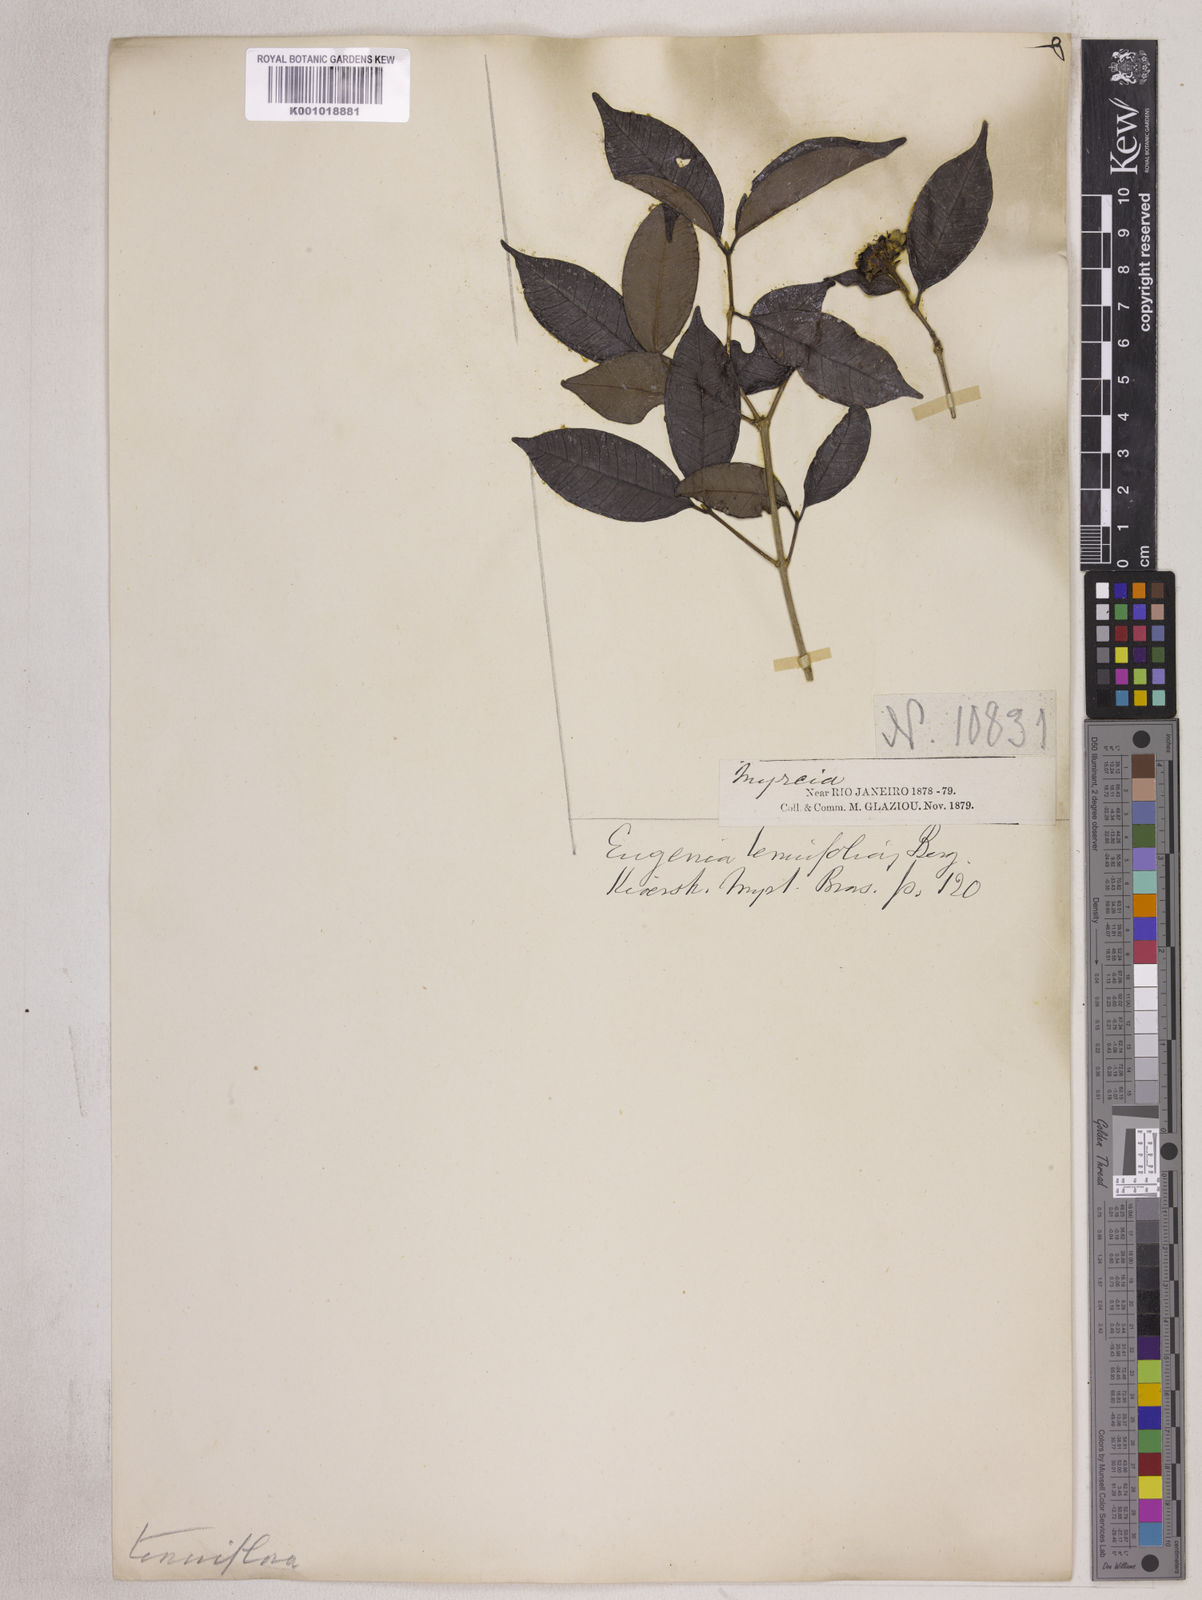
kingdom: Plantae
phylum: Tracheophyta
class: Magnoliopsida
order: Myrtales
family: Myrtaceae
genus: Eugenia
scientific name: Eugenia decussata
